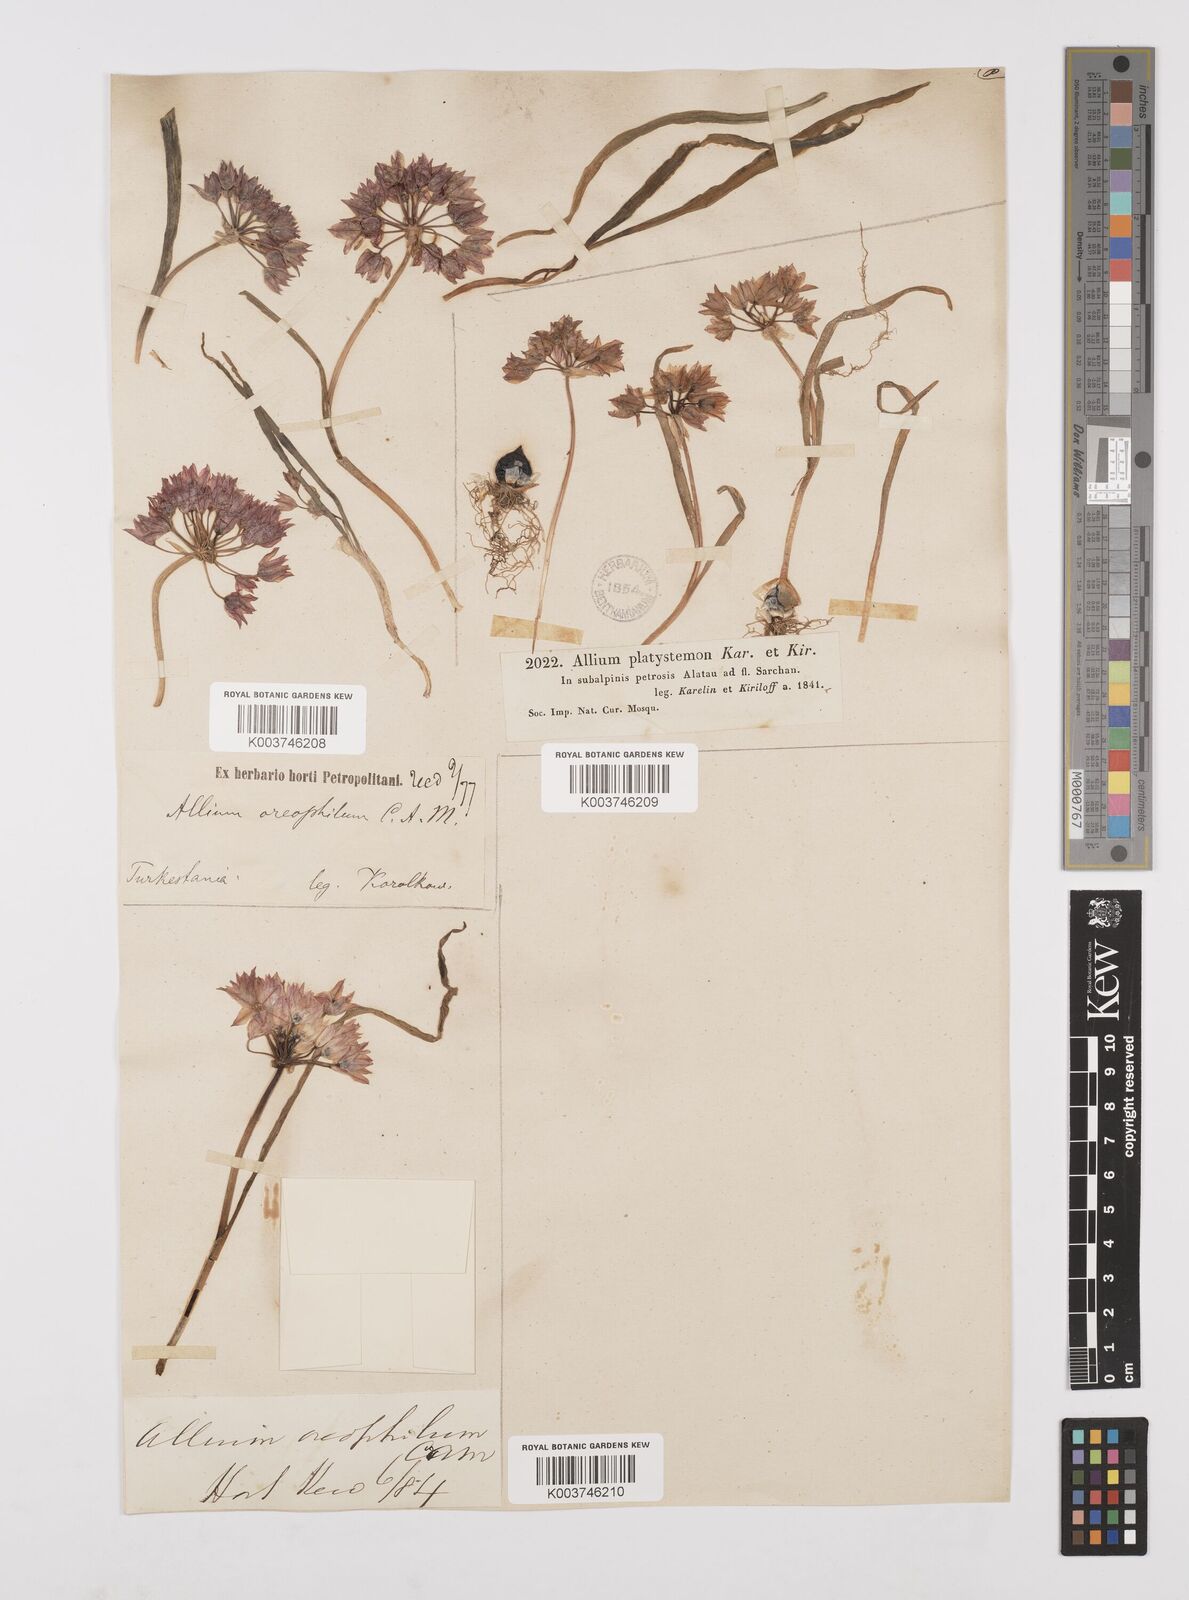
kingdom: Plantae
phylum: Tracheophyta
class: Liliopsida
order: Asparagales
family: Amaryllidaceae
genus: Allium
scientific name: Allium oreophilum
